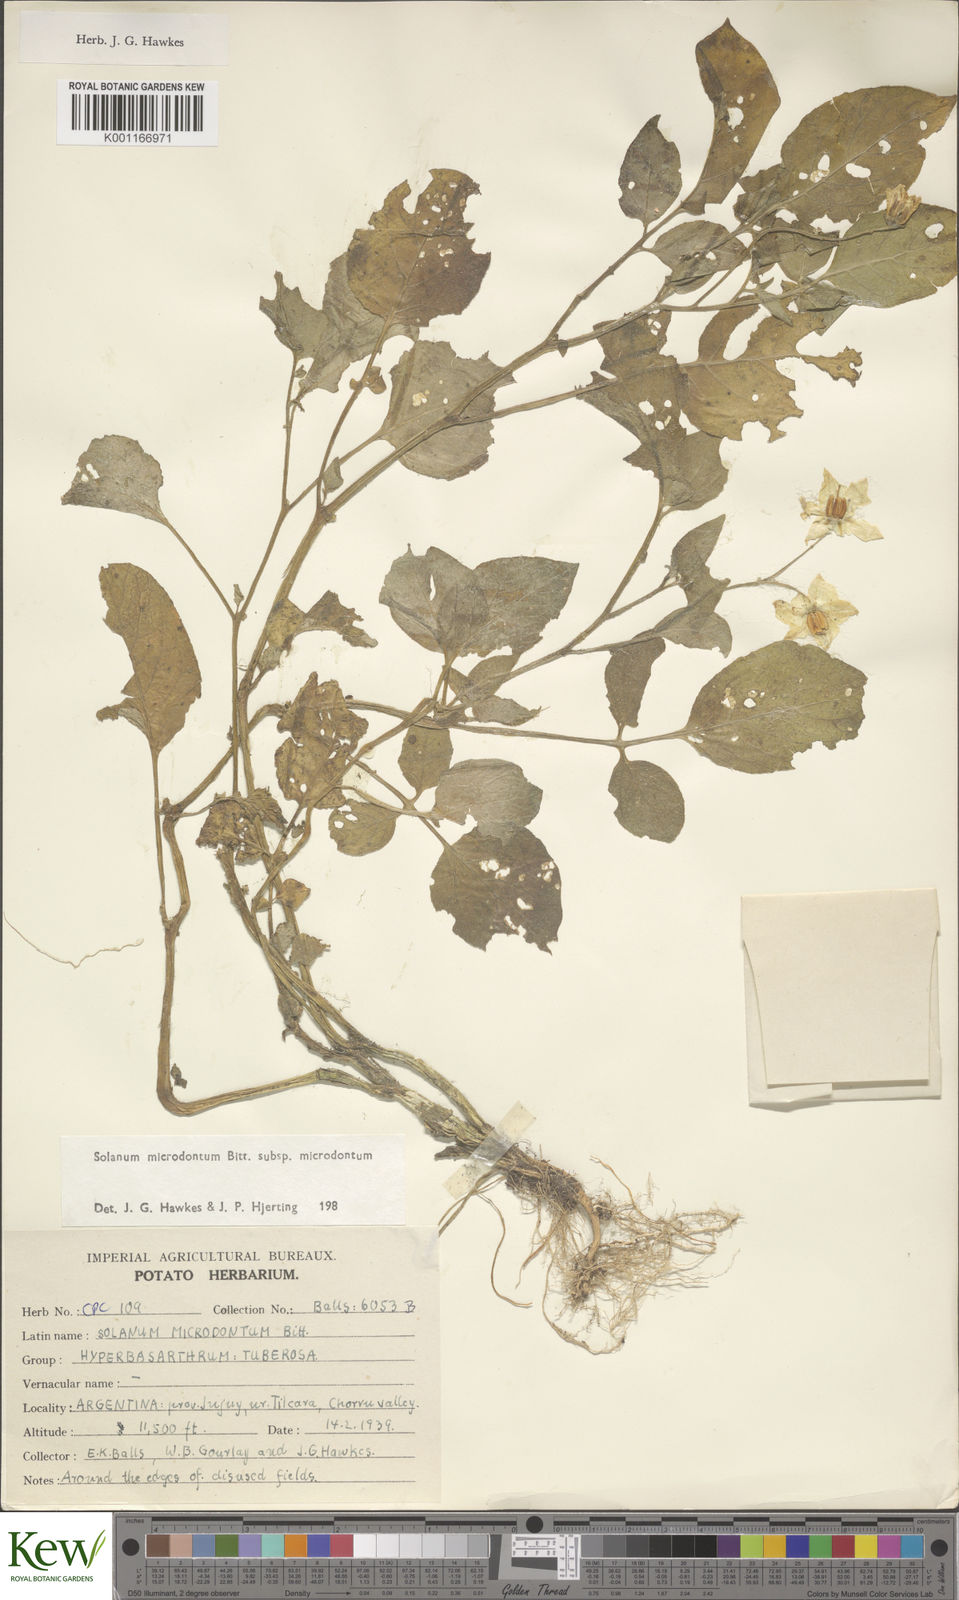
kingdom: Plantae
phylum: Tracheophyta
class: Magnoliopsida
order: Solanales
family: Solanaceae
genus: Solanum
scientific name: Solanum microdontum
